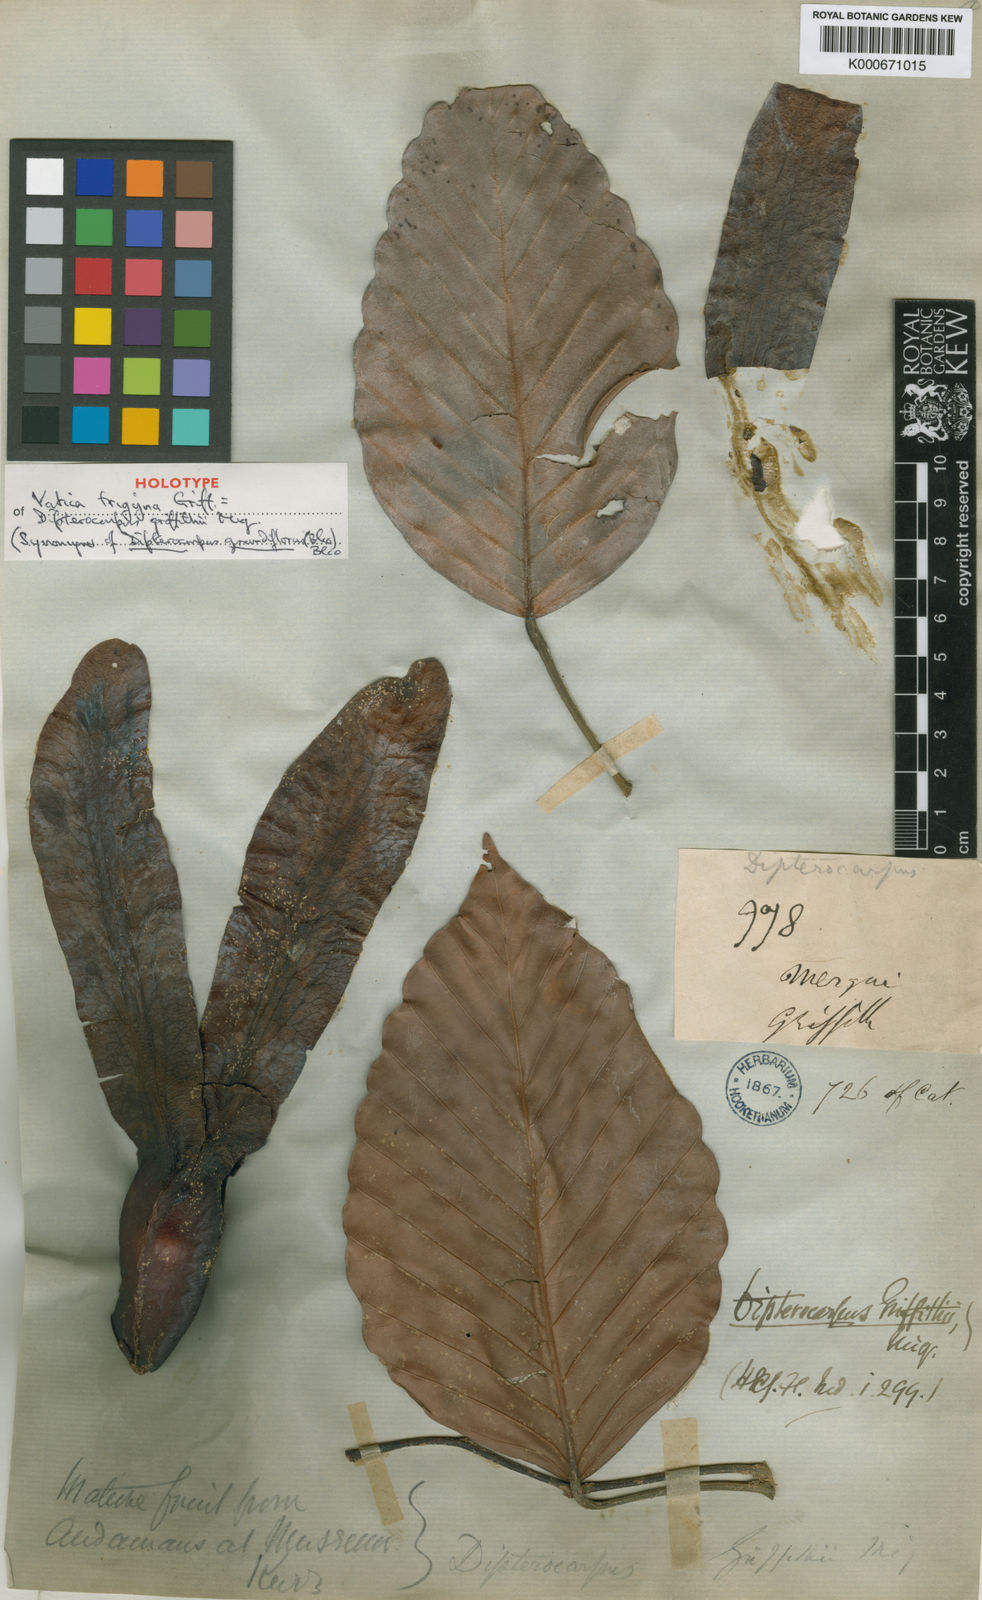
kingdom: Plantae
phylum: Tracheophyta
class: Magnoliopsida
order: Malvales
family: Dipterocarpaceae
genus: Dipterocarpus
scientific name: Dipterocarpus grandiflorus
